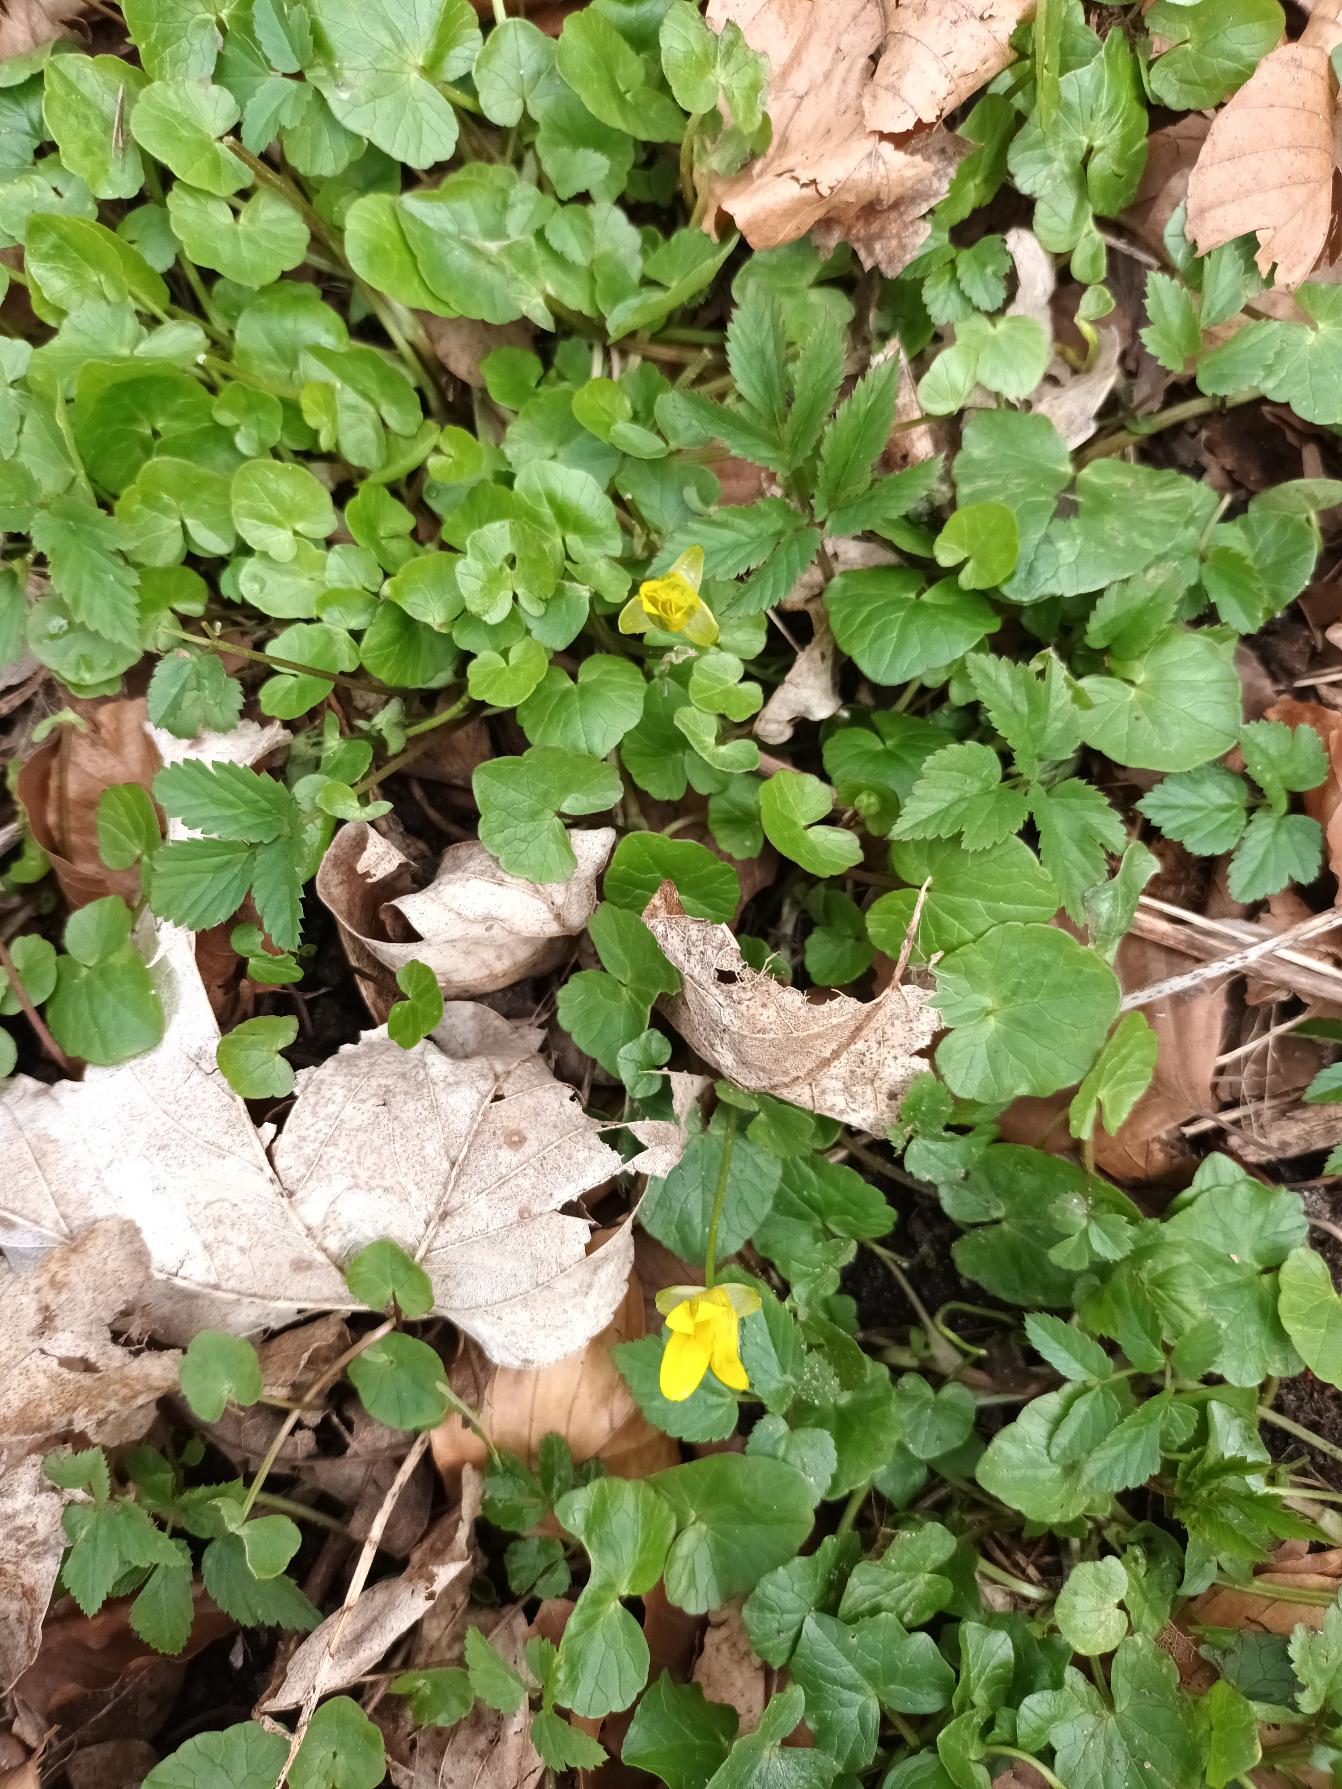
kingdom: Plantae
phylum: Tracheophyta
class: Magnoliopsida
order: Ranunculales
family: Ranunculaceae
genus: Ficaria
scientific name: Ficaria verna
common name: Vorterod
